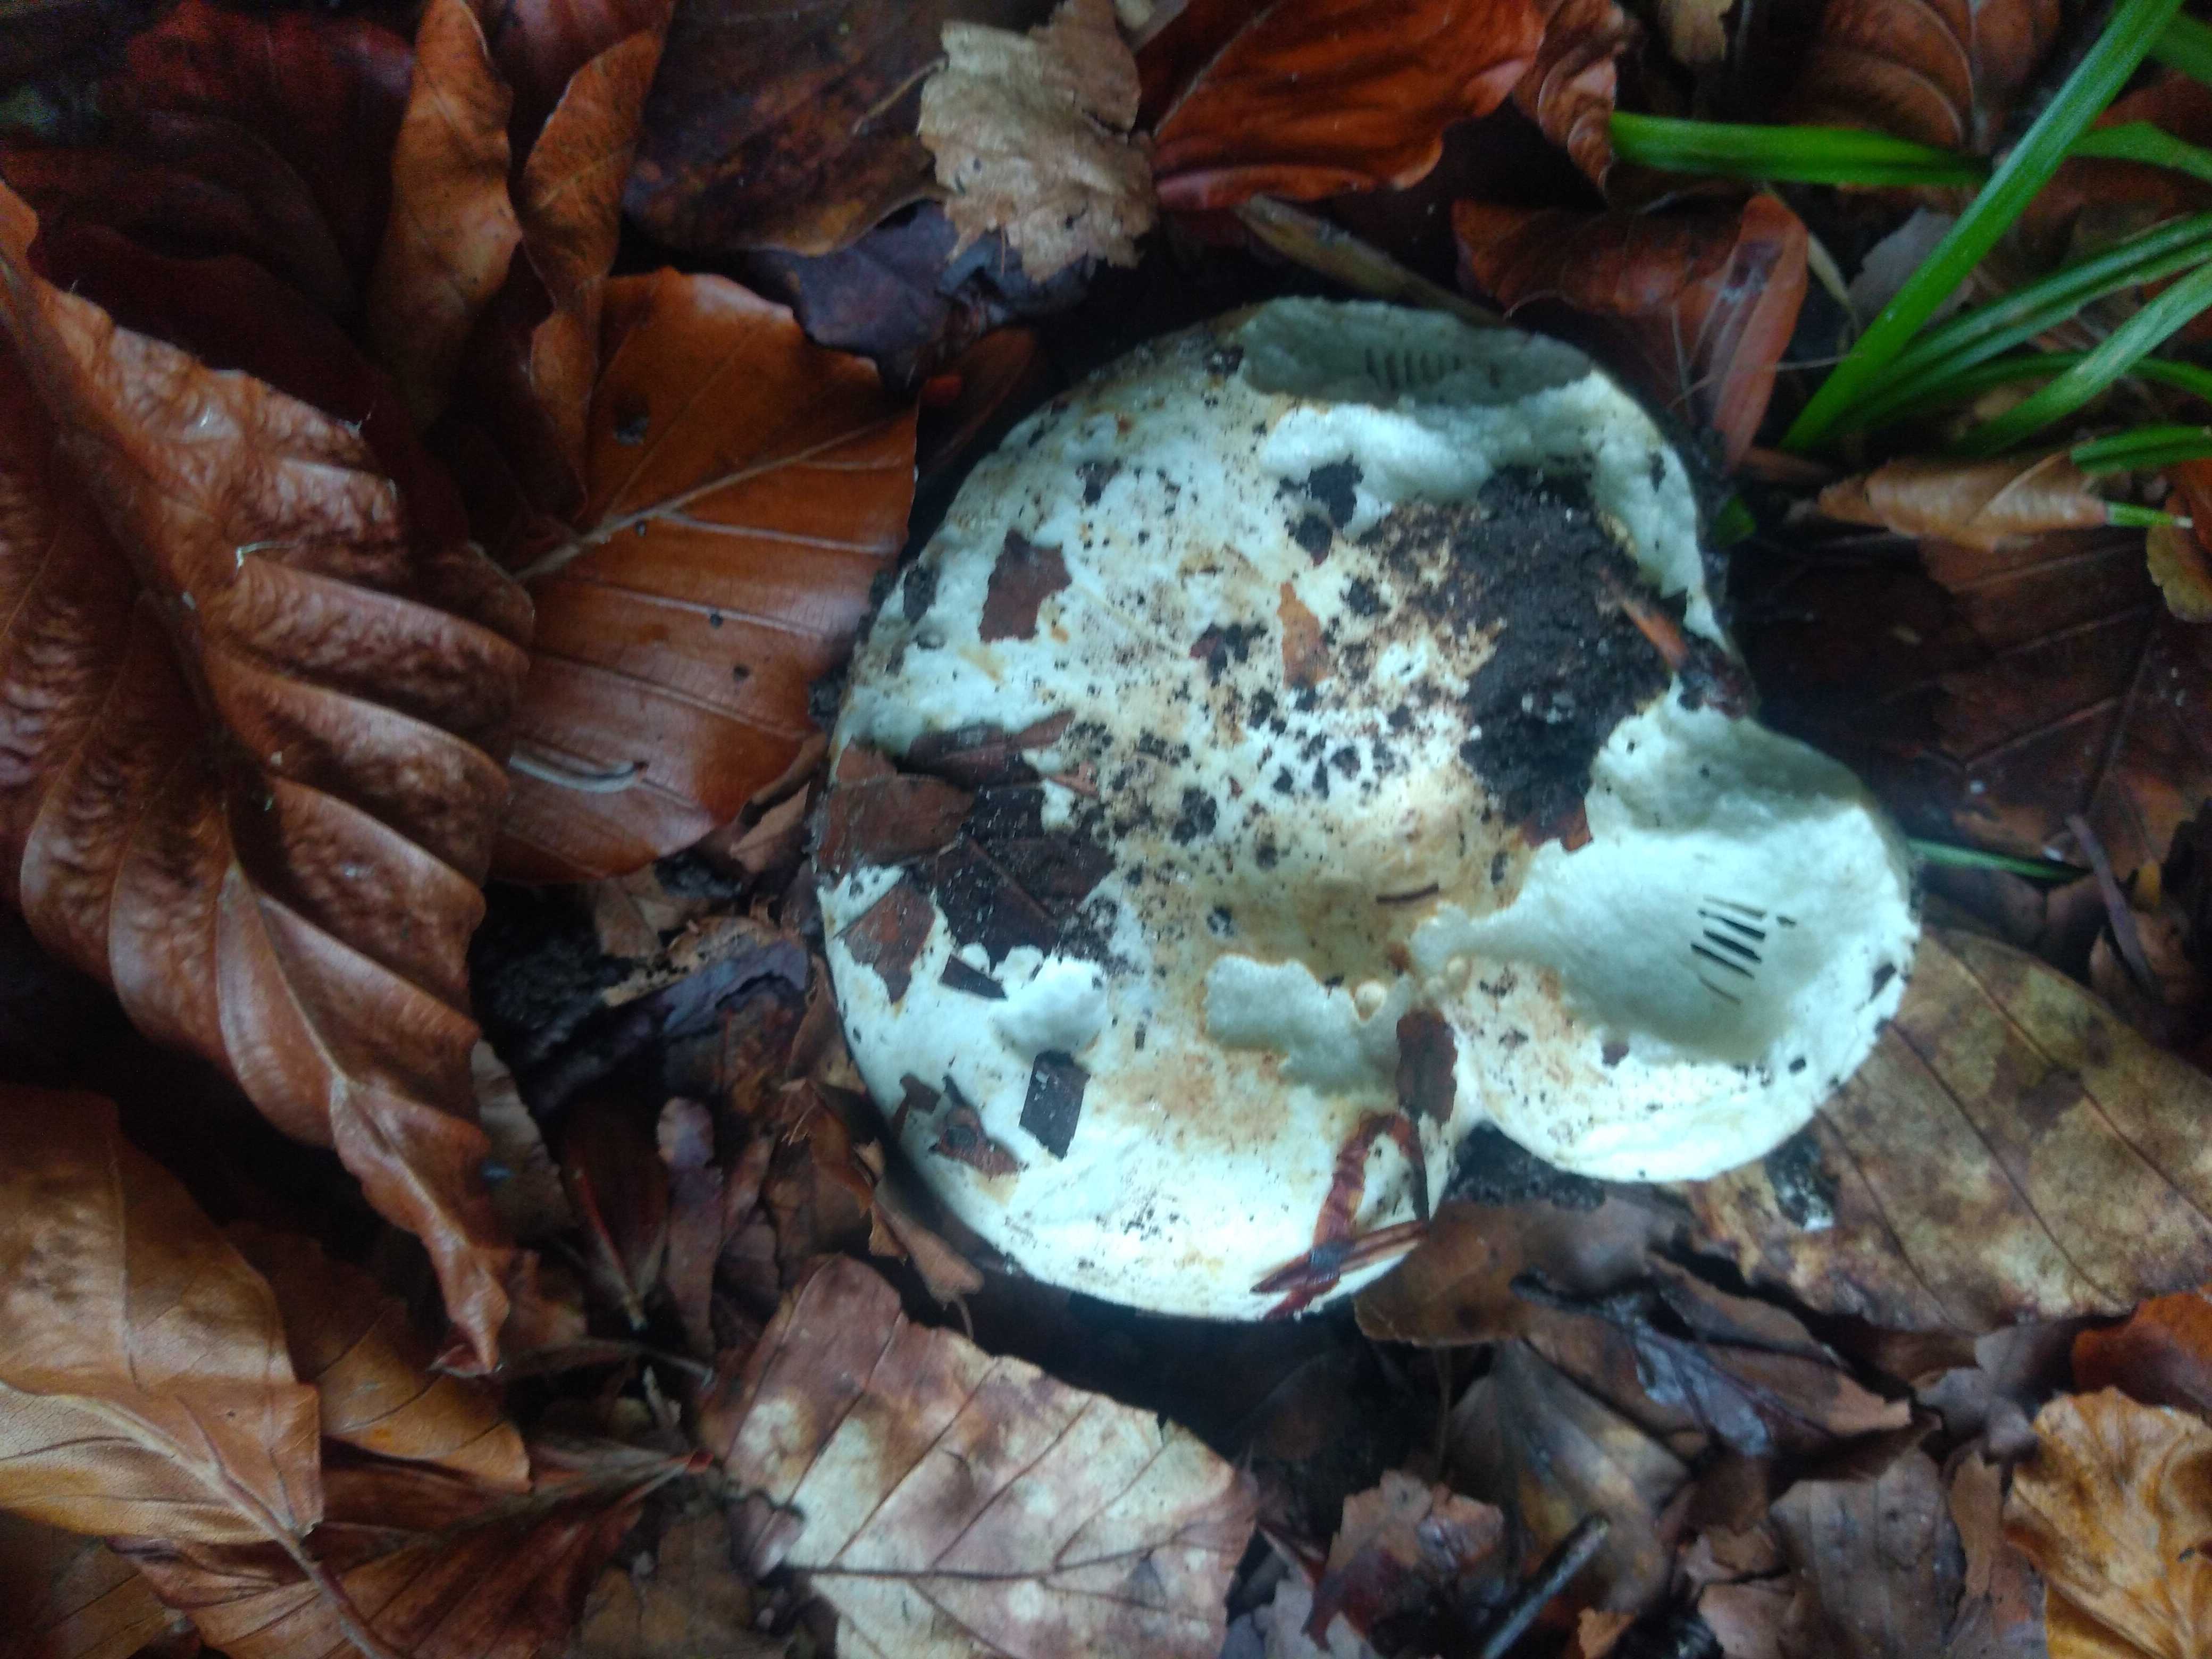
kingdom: Fungi
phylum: Basidiomycota
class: Agaricomycetes
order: Russulales
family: Russulaceae
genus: Russula
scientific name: Russula delica
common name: almindelig tragt-skørhat
